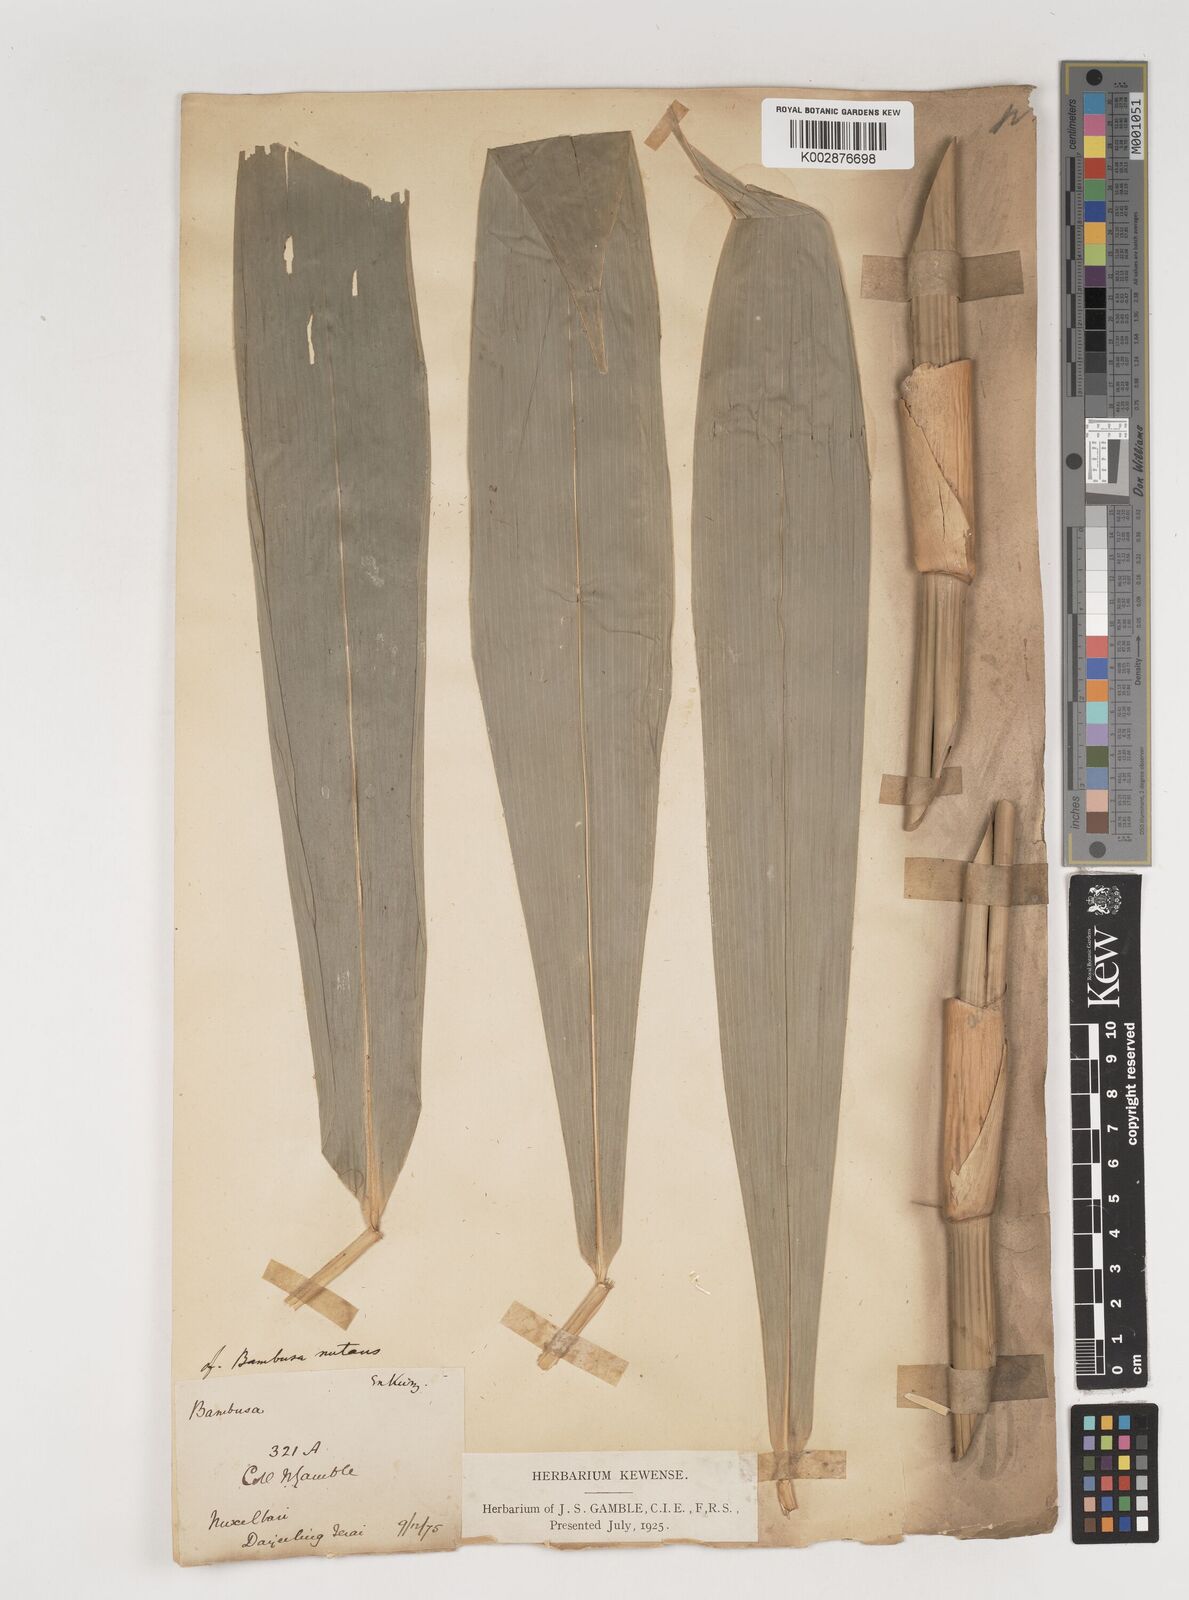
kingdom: Plantae
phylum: Tracheophyta
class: Liliopsida
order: Poales
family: Poaceae
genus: Bambusa
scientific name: Bambusa nutans
